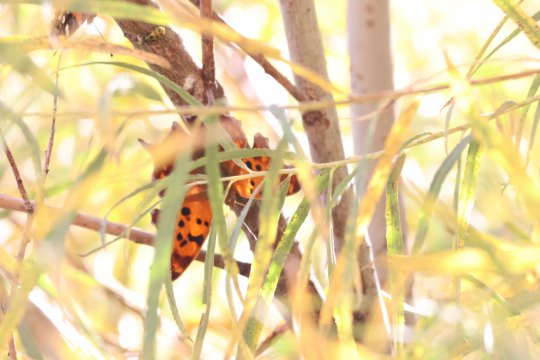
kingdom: Animalia
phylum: Arthropoda
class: Insecta
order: Lepidoptera
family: Nymphalidae
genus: Polygonia
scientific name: Polygonia interrogationis
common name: Question Mark
